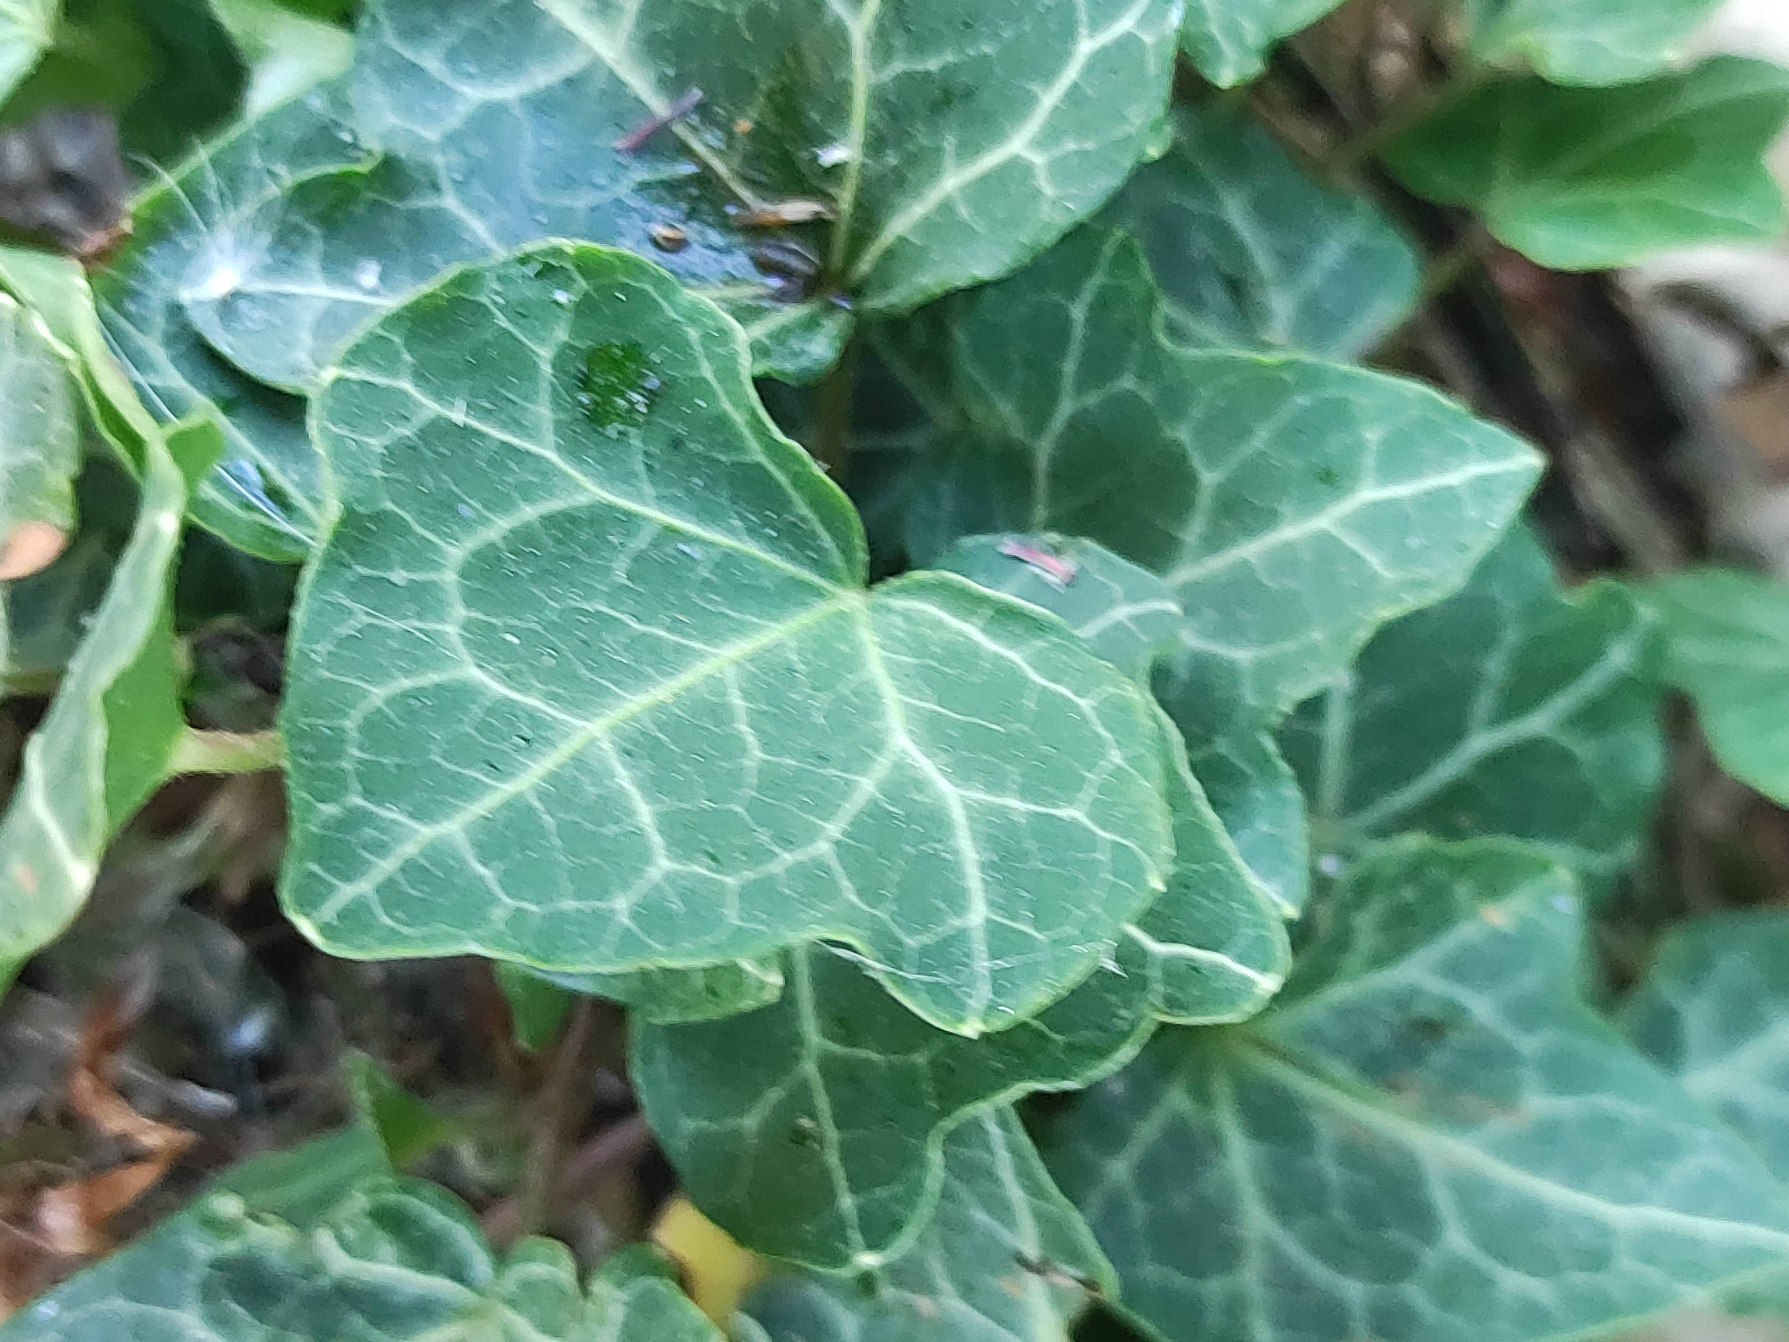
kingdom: Plantae
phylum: Tracheophyta
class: Magnoliopsida
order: Apiales
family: Araliaceae
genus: Hedera
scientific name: Hedera helix
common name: Vedbend
